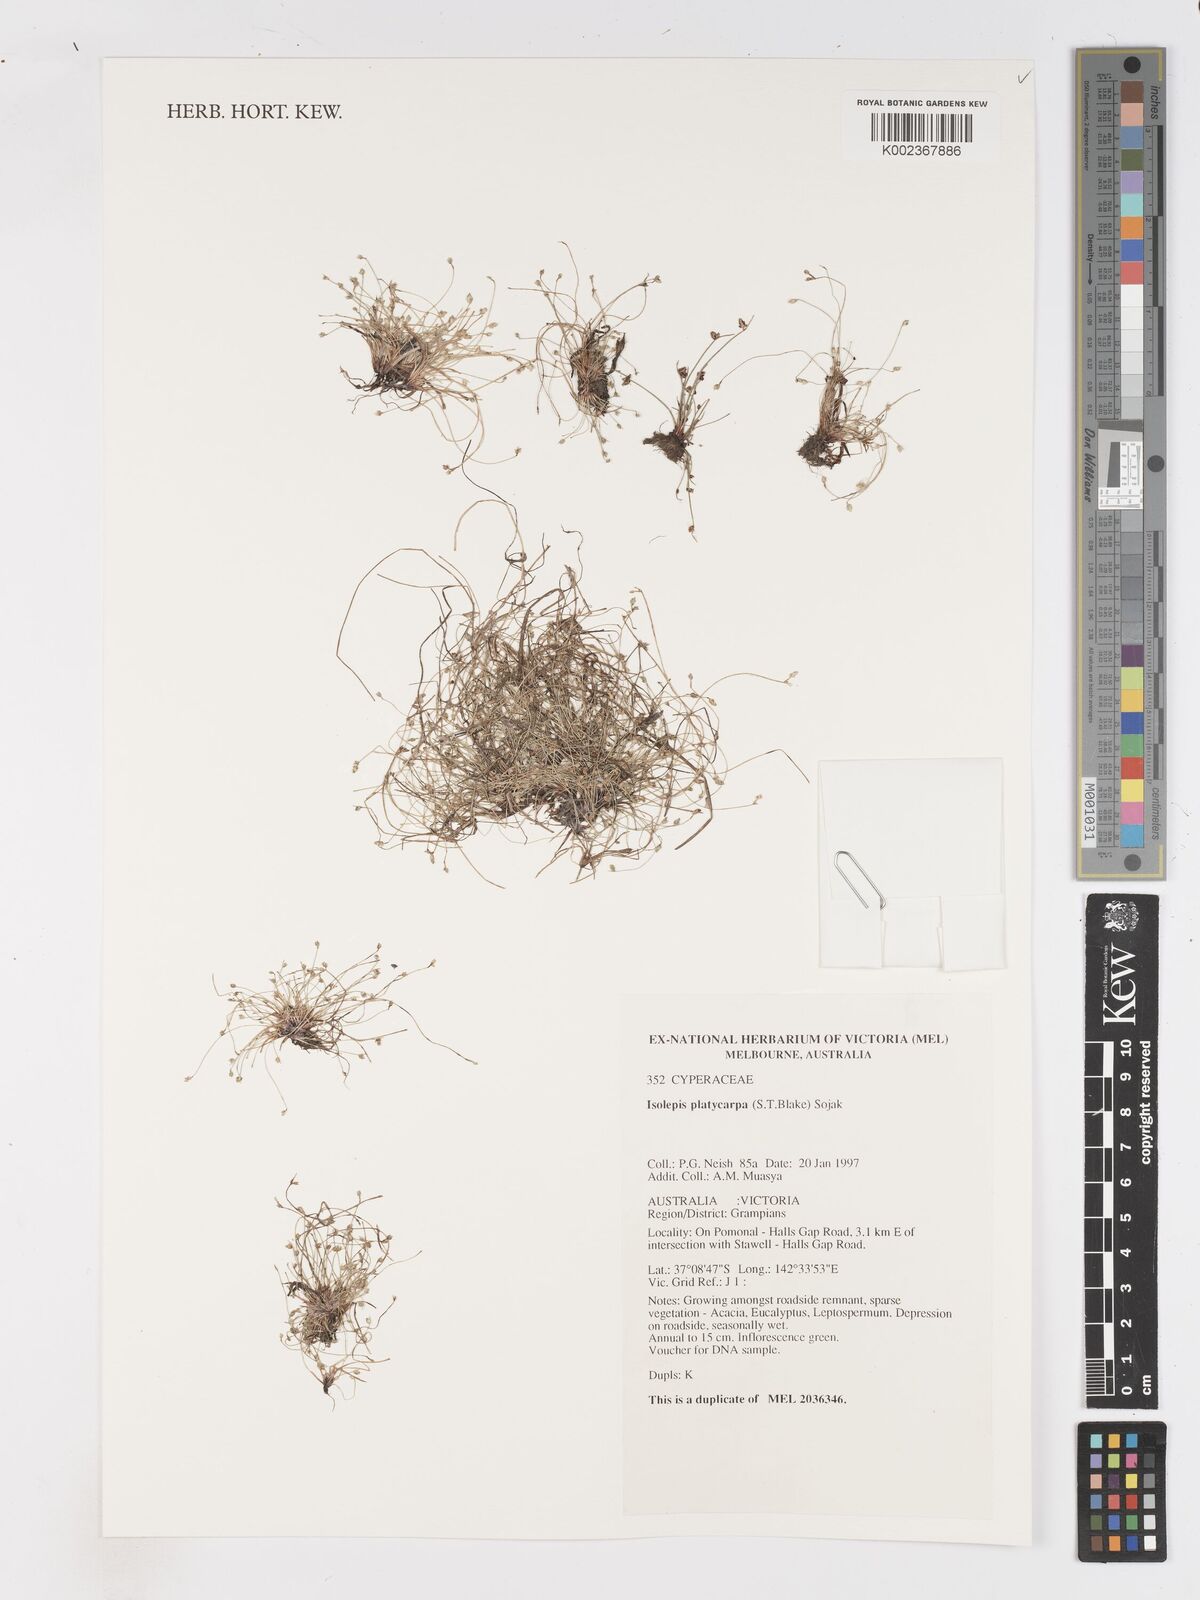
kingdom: Plantae
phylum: Tracheophyta
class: Liliopsida
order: Poales
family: Cyperaceae
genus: Isolepis
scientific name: Isolepis cernua
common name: Slender club-rush
